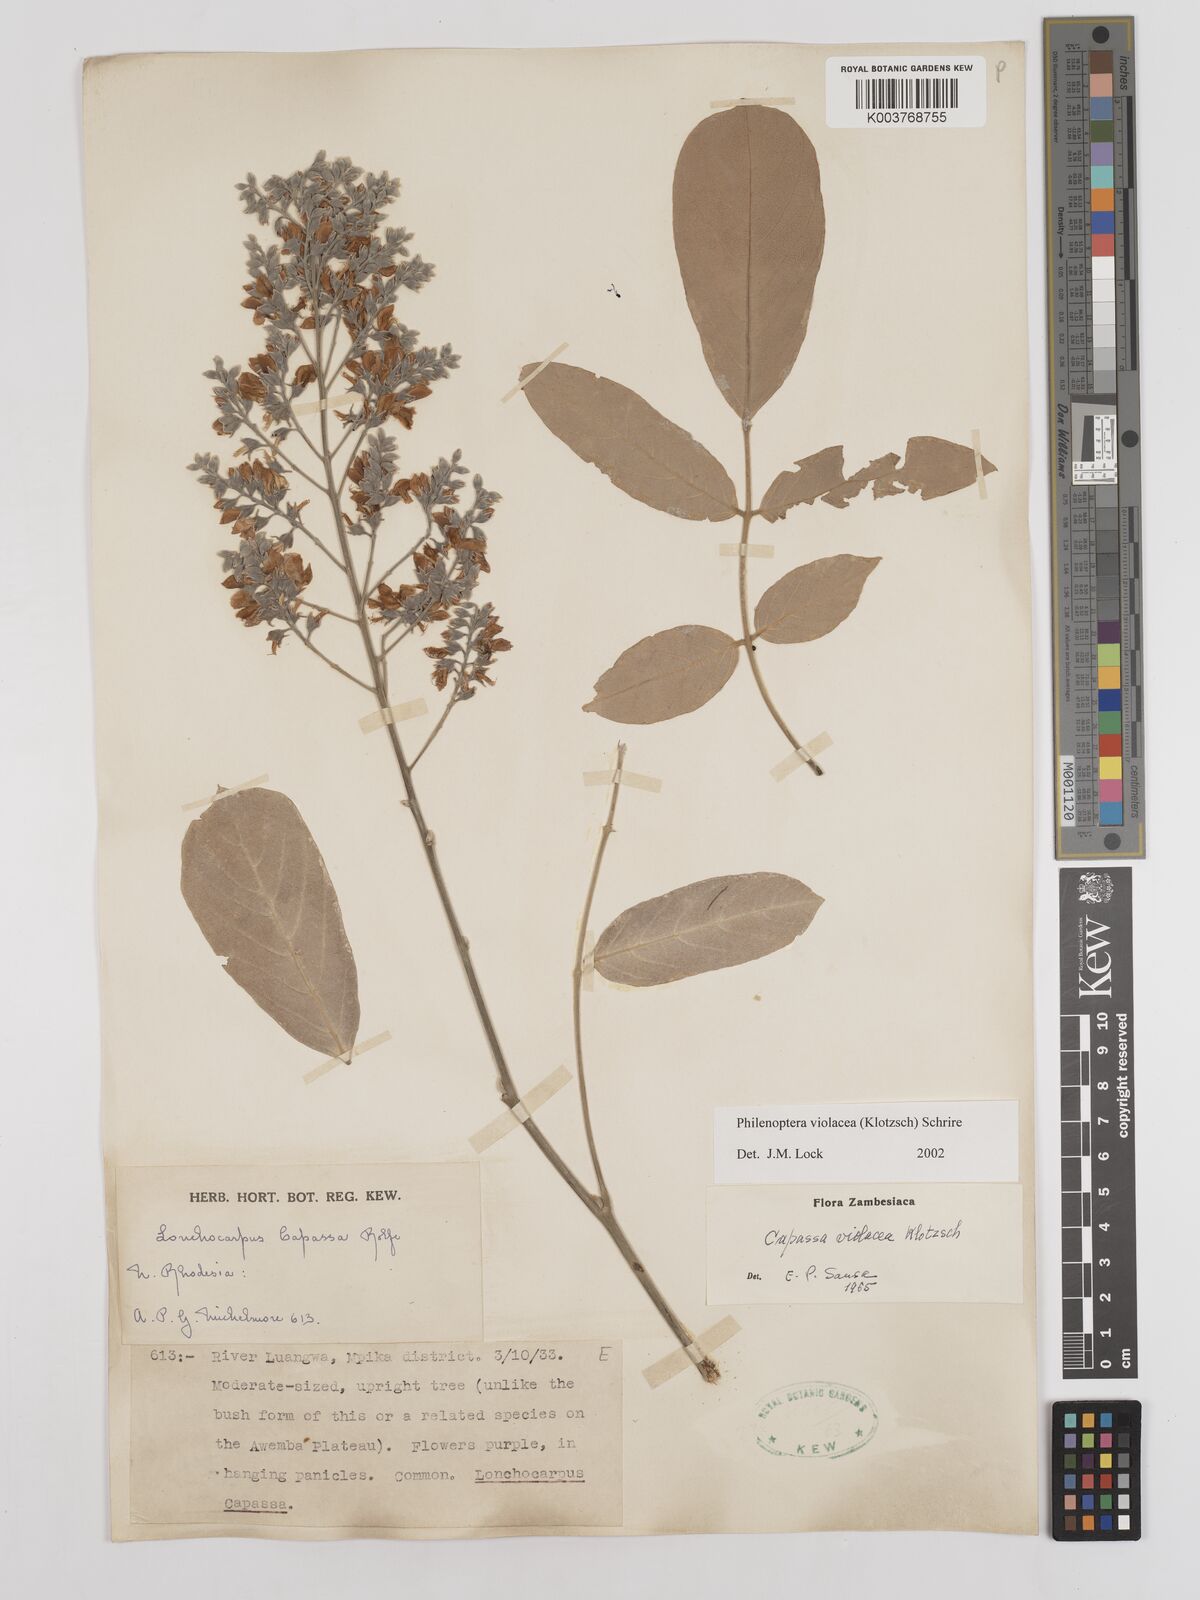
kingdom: Plantae
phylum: Tracheophyta
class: Magnoliopsida
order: Fabales
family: Fabaceae
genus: Philenoptera
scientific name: Philenoptera violacea
